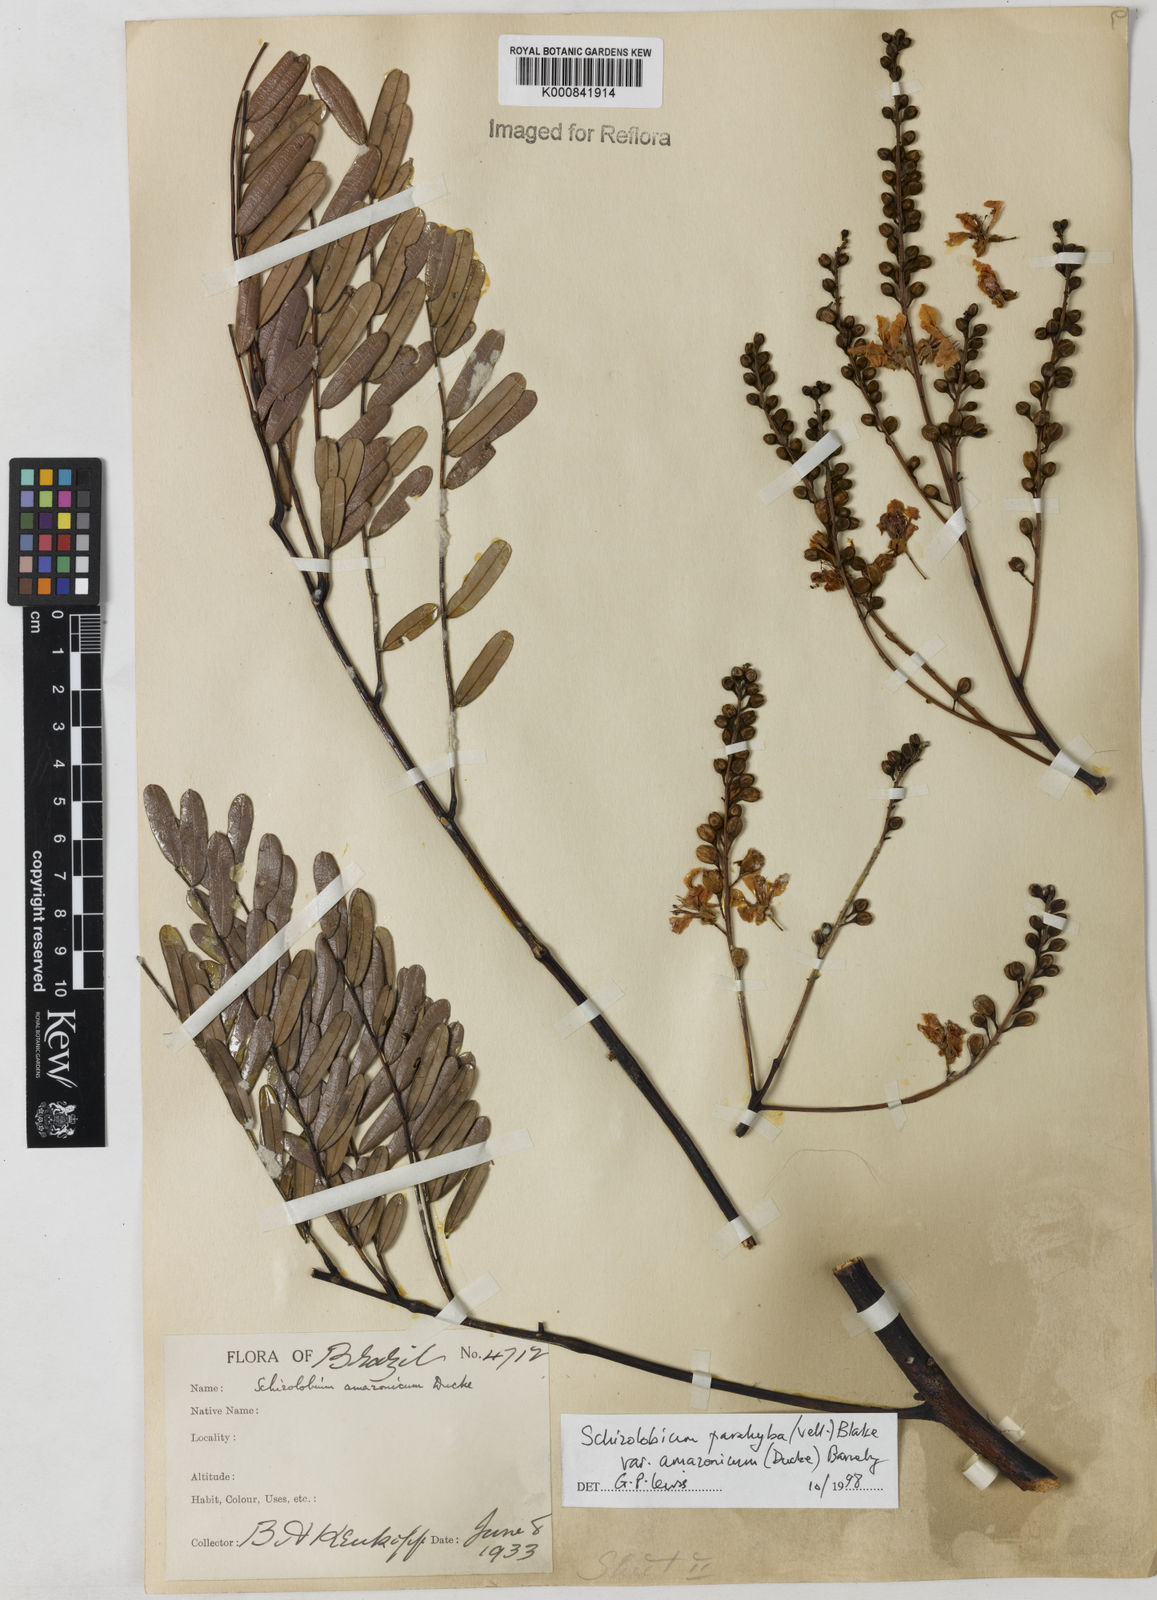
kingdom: Plantae
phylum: Tracheophyta
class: Magnoliopsida
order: Fabales
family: Fabaceae
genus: Schizolobium
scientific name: Schizolobium parahyba
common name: Brazilian firetree
